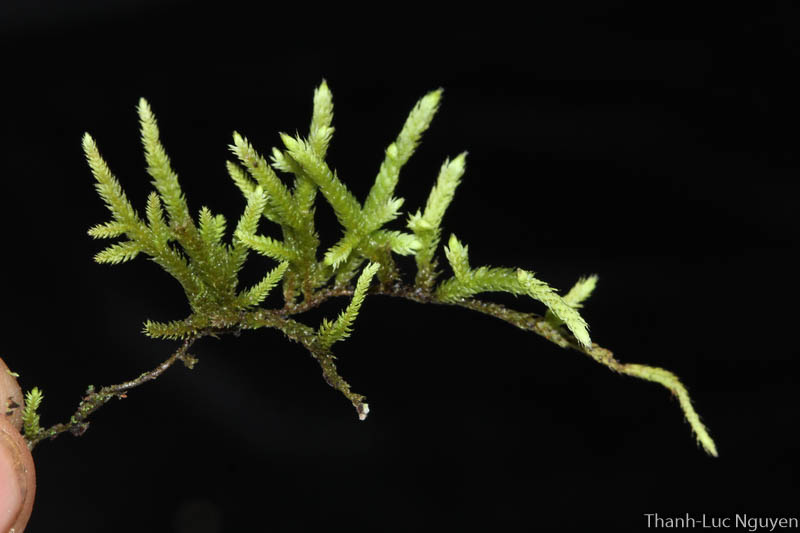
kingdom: Plantae
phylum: Bryophyta
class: Bryopsida
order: Hypnales
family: Meteoriaceae
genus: Cryptopapillaria
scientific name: Cryptopapillaria feae
